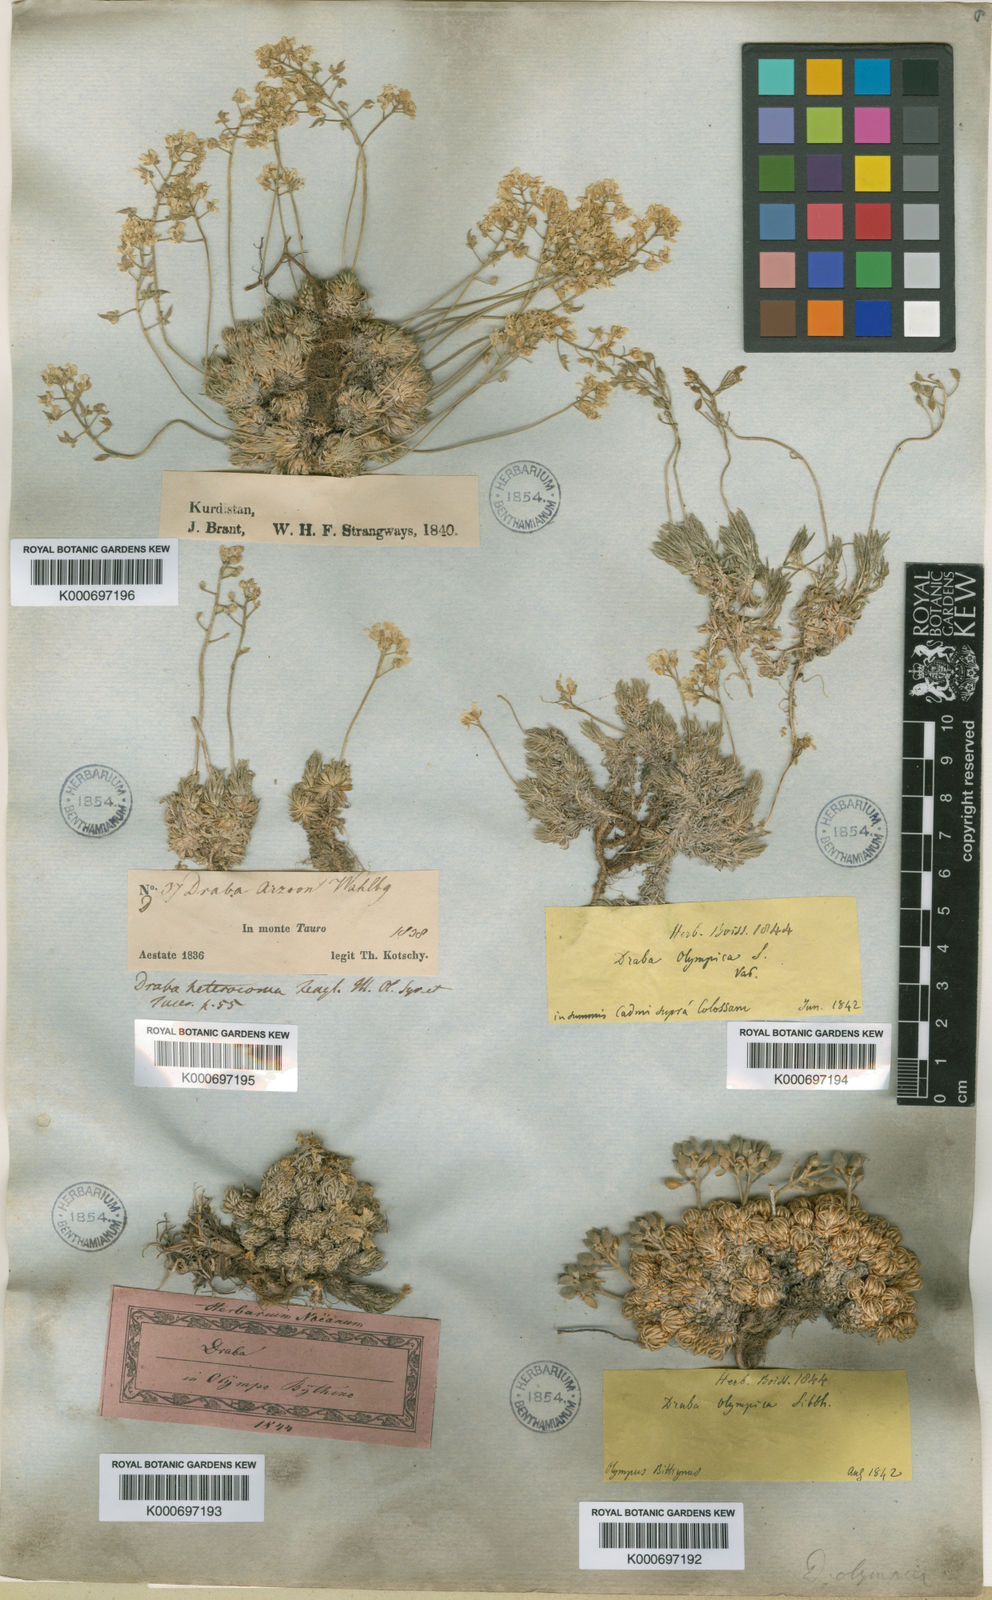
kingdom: Plantae
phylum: Tracheophyta
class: Magnoliopsida
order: Brassicales
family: Brassicaceae
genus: Draba
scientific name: Draba bruniifolia
